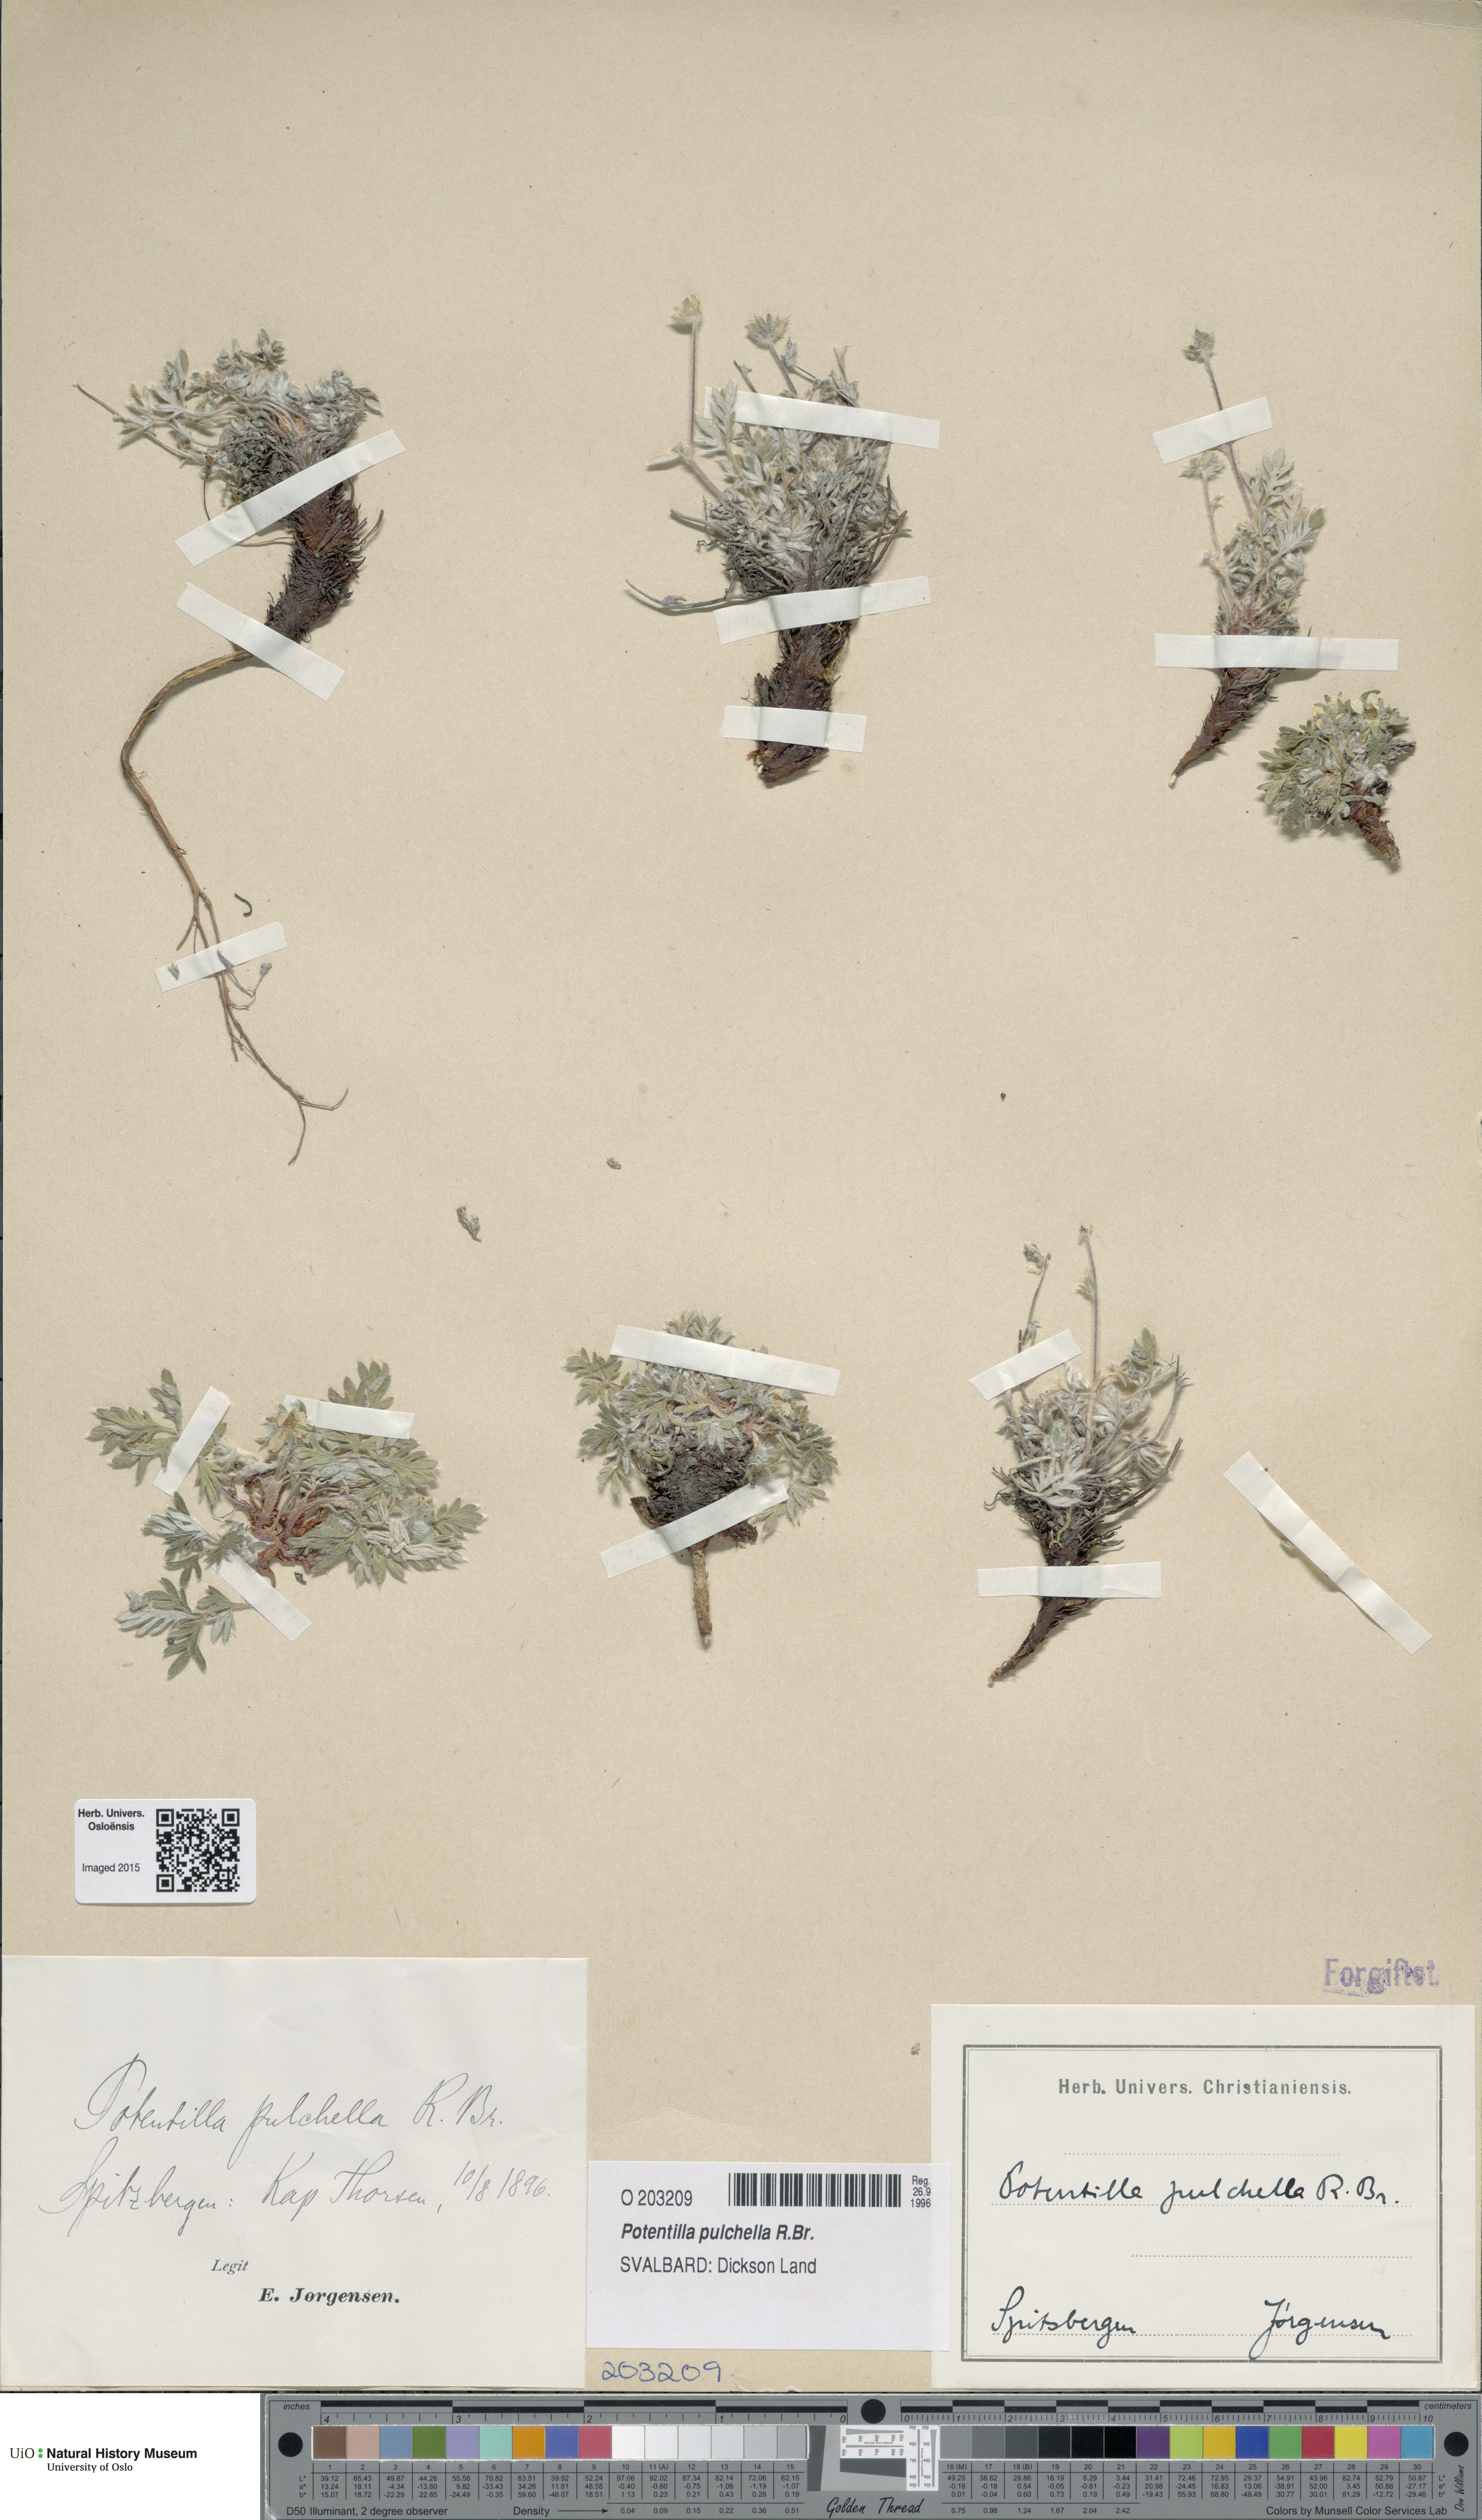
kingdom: Plantae
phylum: Tracheophyta
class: Magnoliopsida
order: Rosales
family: Rosaceae
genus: Potentilla
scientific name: Potentilla pulchella
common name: Pretty cinquefoil
